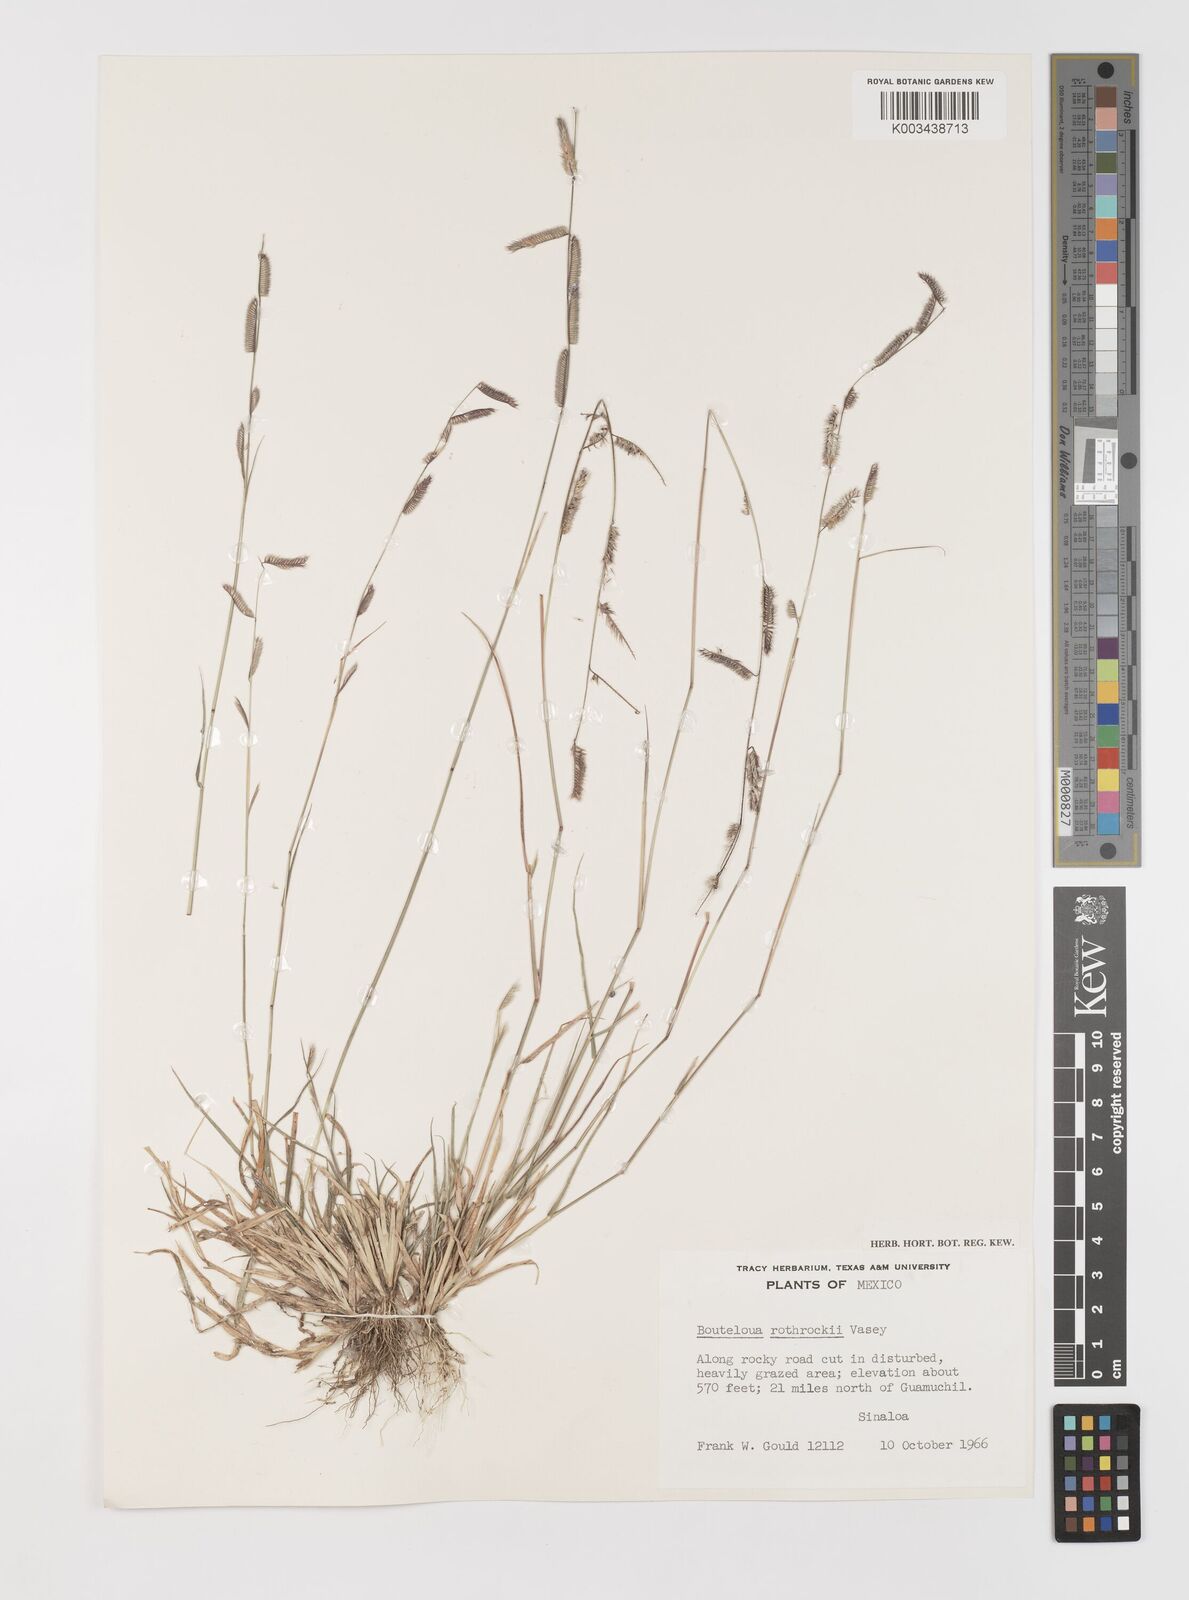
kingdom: Plantae
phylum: Tracheophyta
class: Liliopsida
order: Poales
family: Poaceae
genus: Bouteloua
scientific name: Bouteloua barbata
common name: Six-weeks grama
